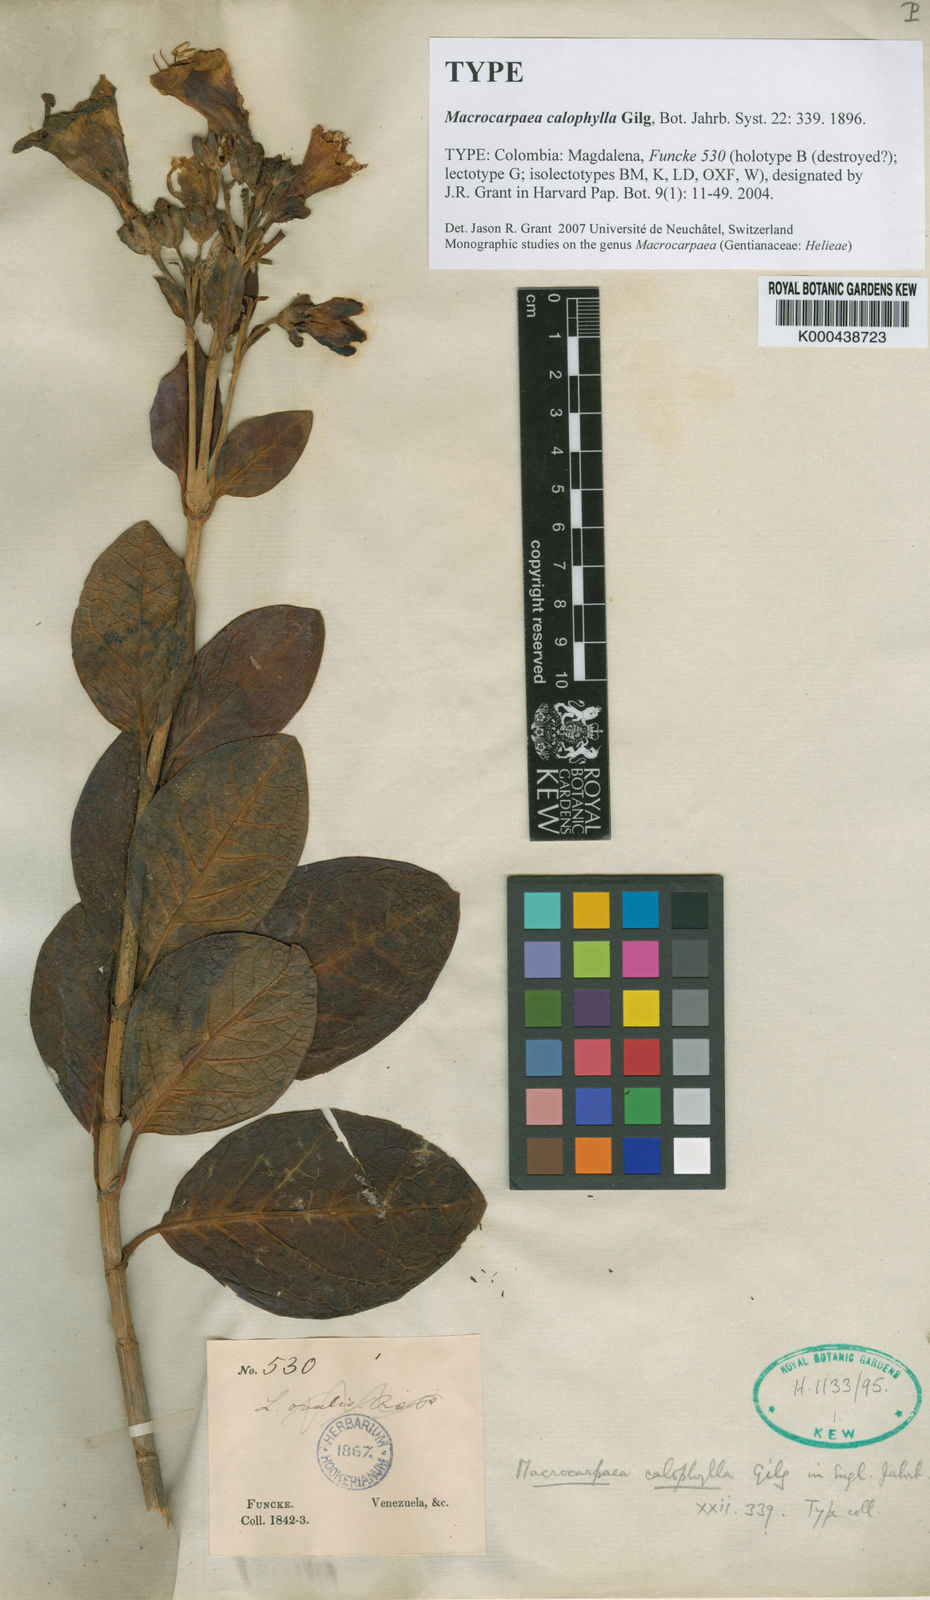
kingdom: Plantae
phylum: Tracheophyta
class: Magnoliopsida
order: Gentianales
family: Gentianaceae
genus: Macrocarpaea
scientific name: Macrocarpaea calophylla
